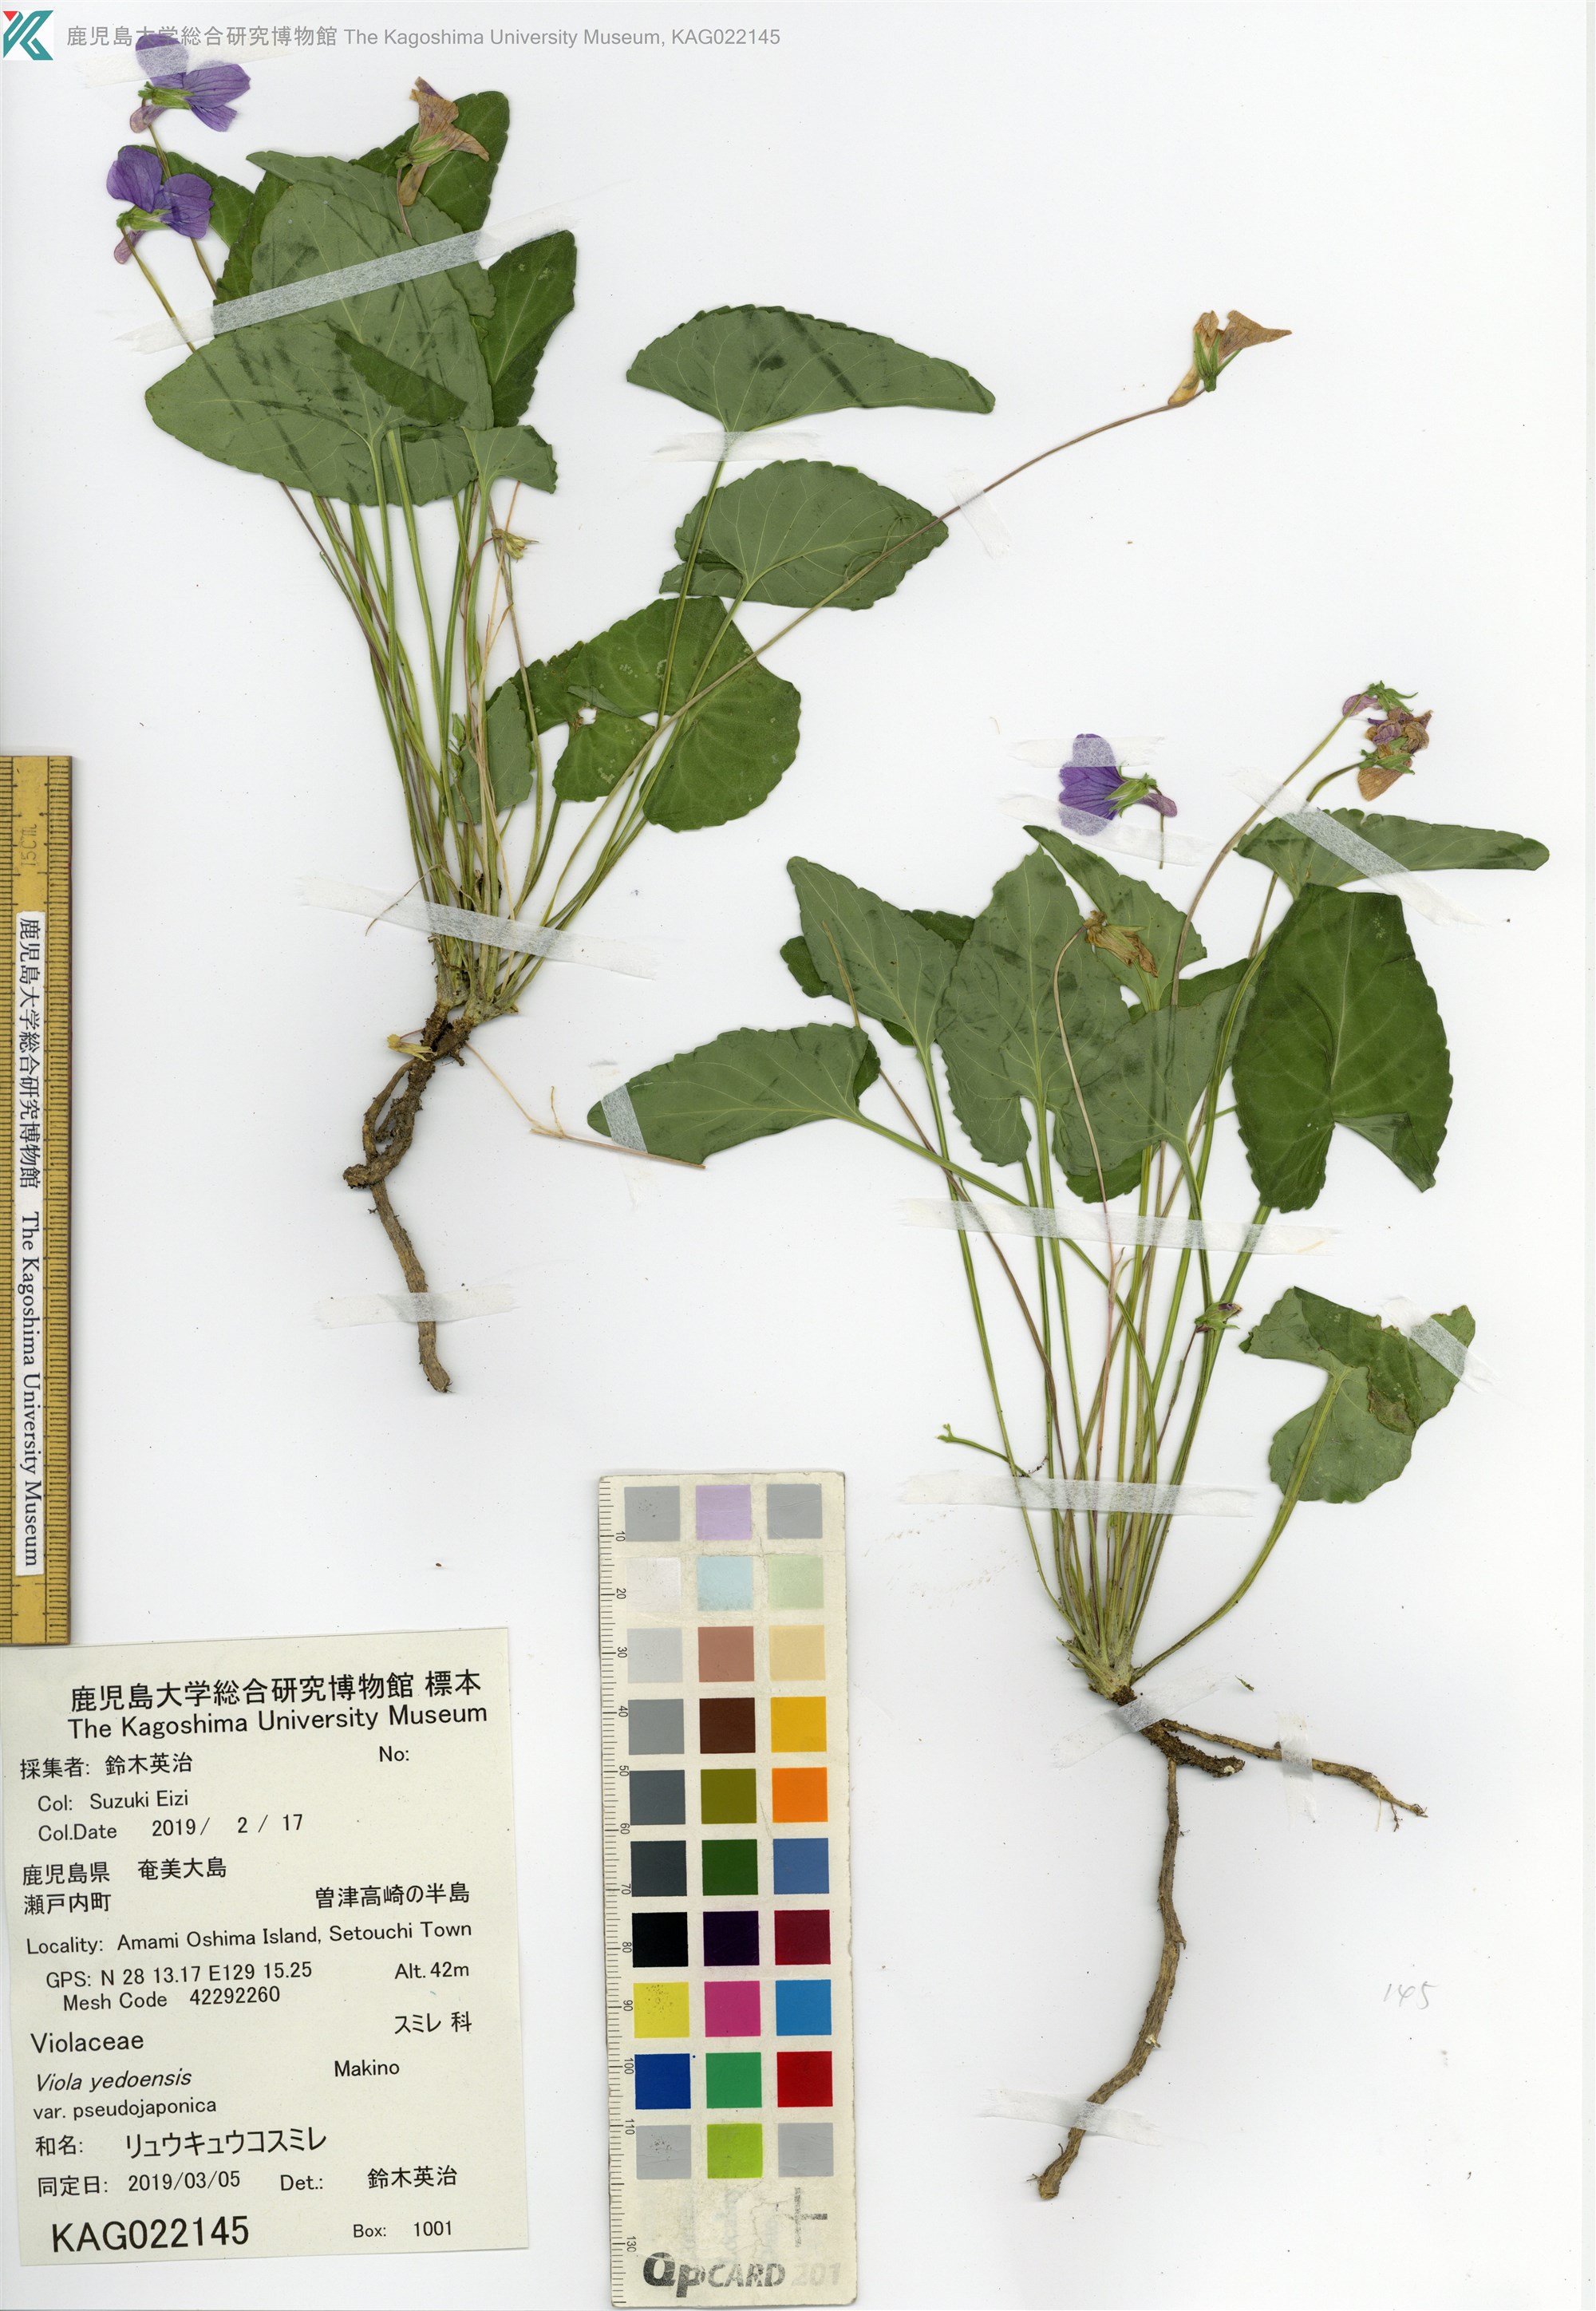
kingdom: Plantae
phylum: Tracheophyta
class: Magnoliopsida
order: Malpighiales
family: Violaceae
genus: Viola
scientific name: Viola philippica
